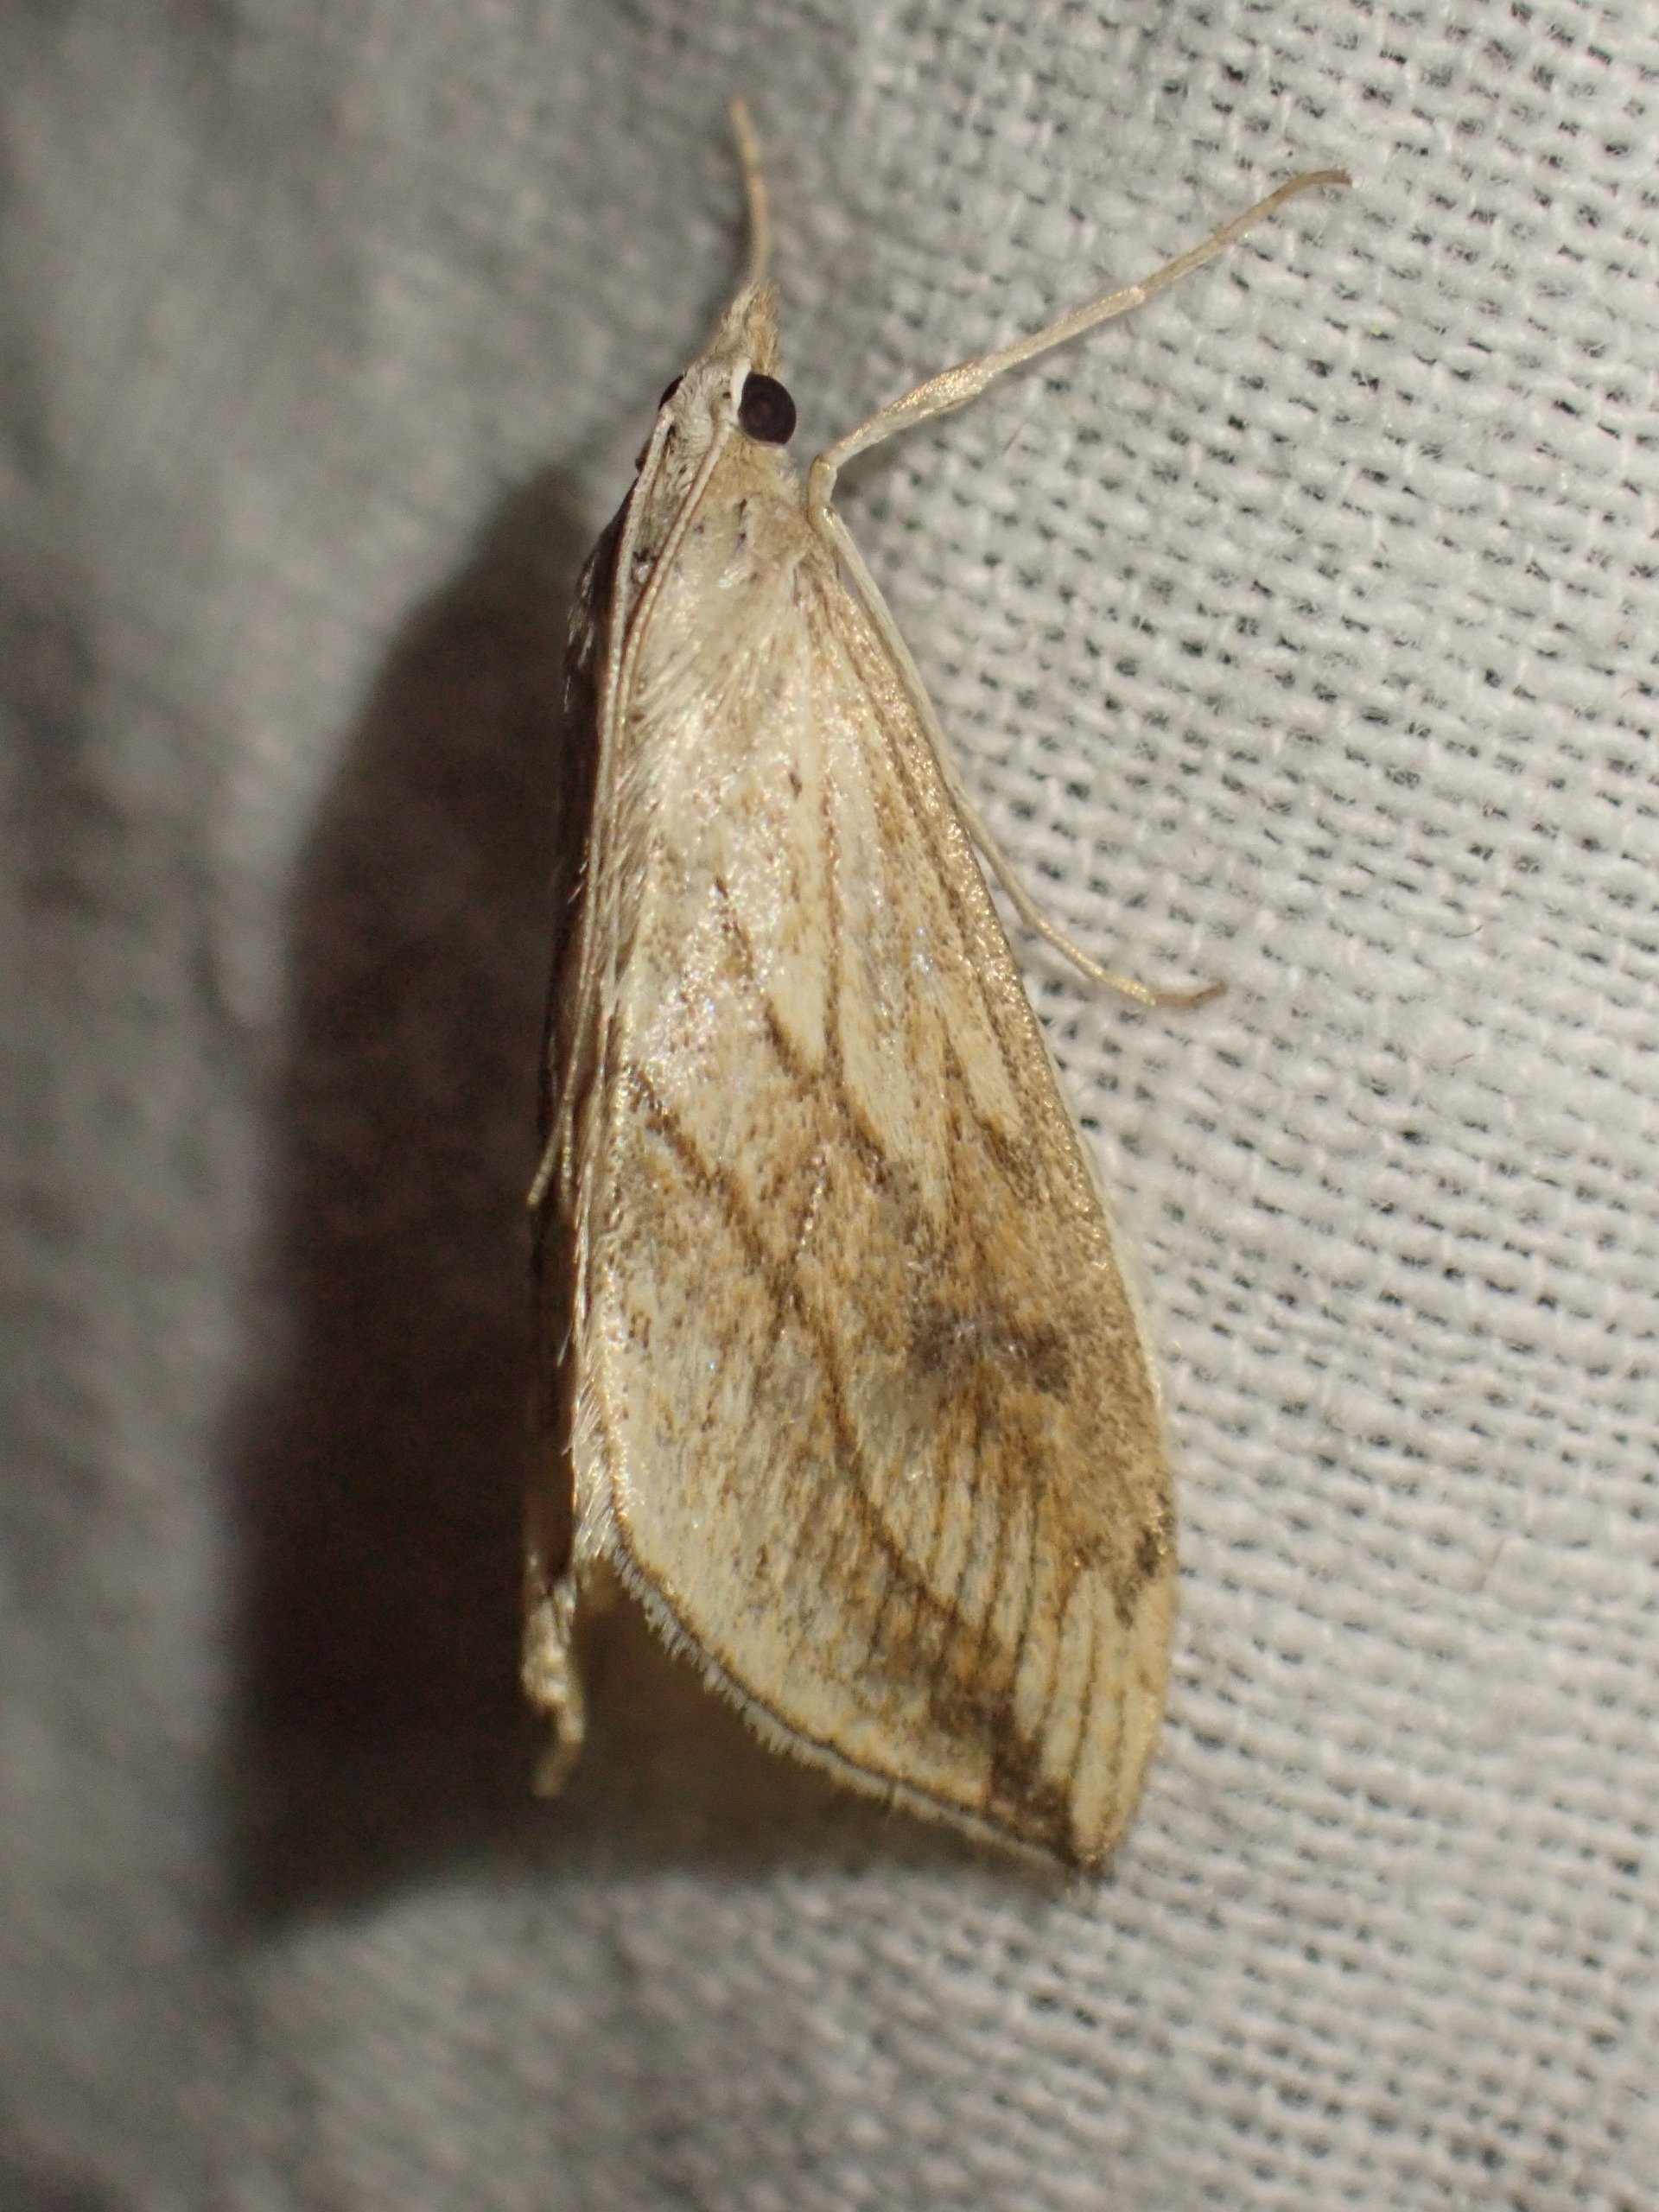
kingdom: Animalia
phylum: Arthropoda
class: Insecta
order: Lepidoptera
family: Crambidae
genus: Evergestis
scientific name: Evergestis forficalis
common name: Kålhalvmøl
